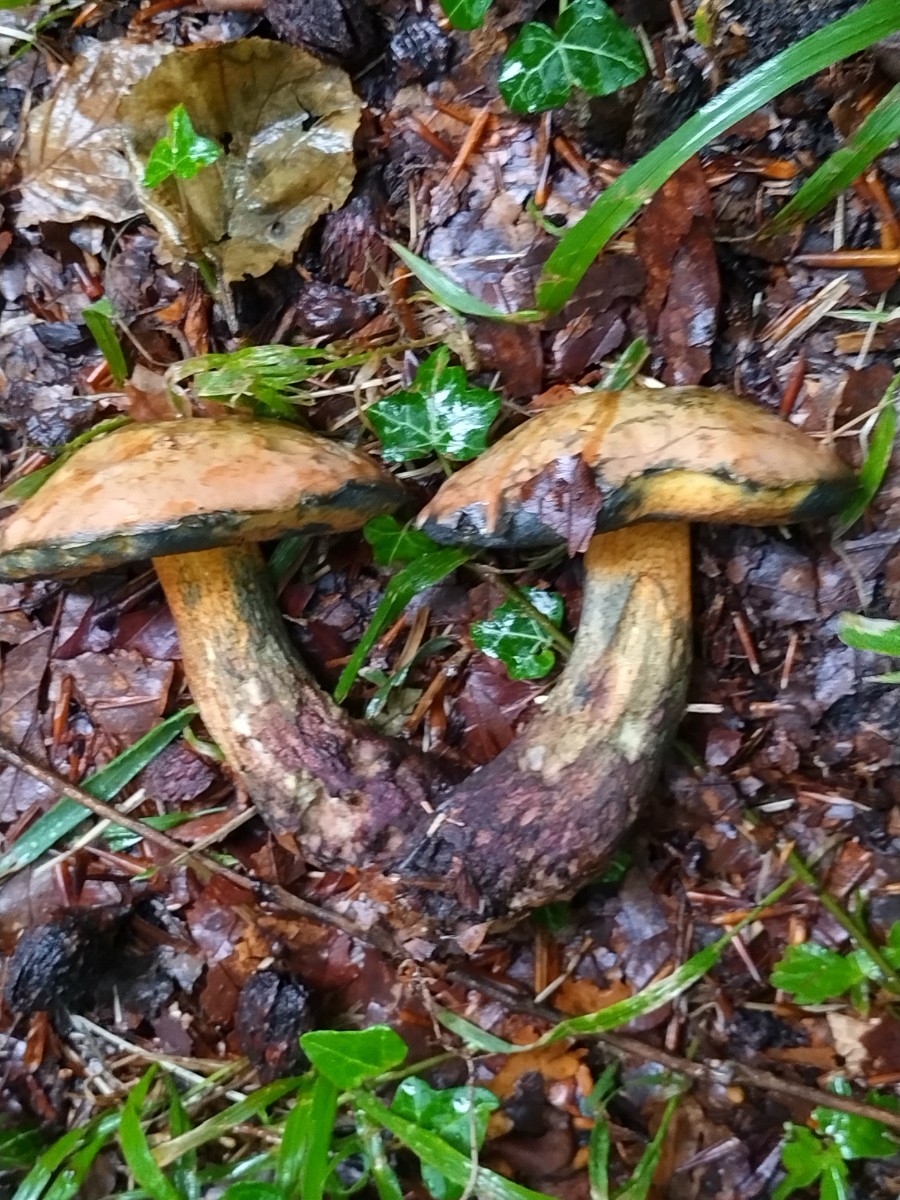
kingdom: Fungi
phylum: Basidiomycota
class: Agaricomycetes
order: Boletales
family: Boletaceae
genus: Suillellus
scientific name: Suillellus luridus
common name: netstokket indigorørhat
